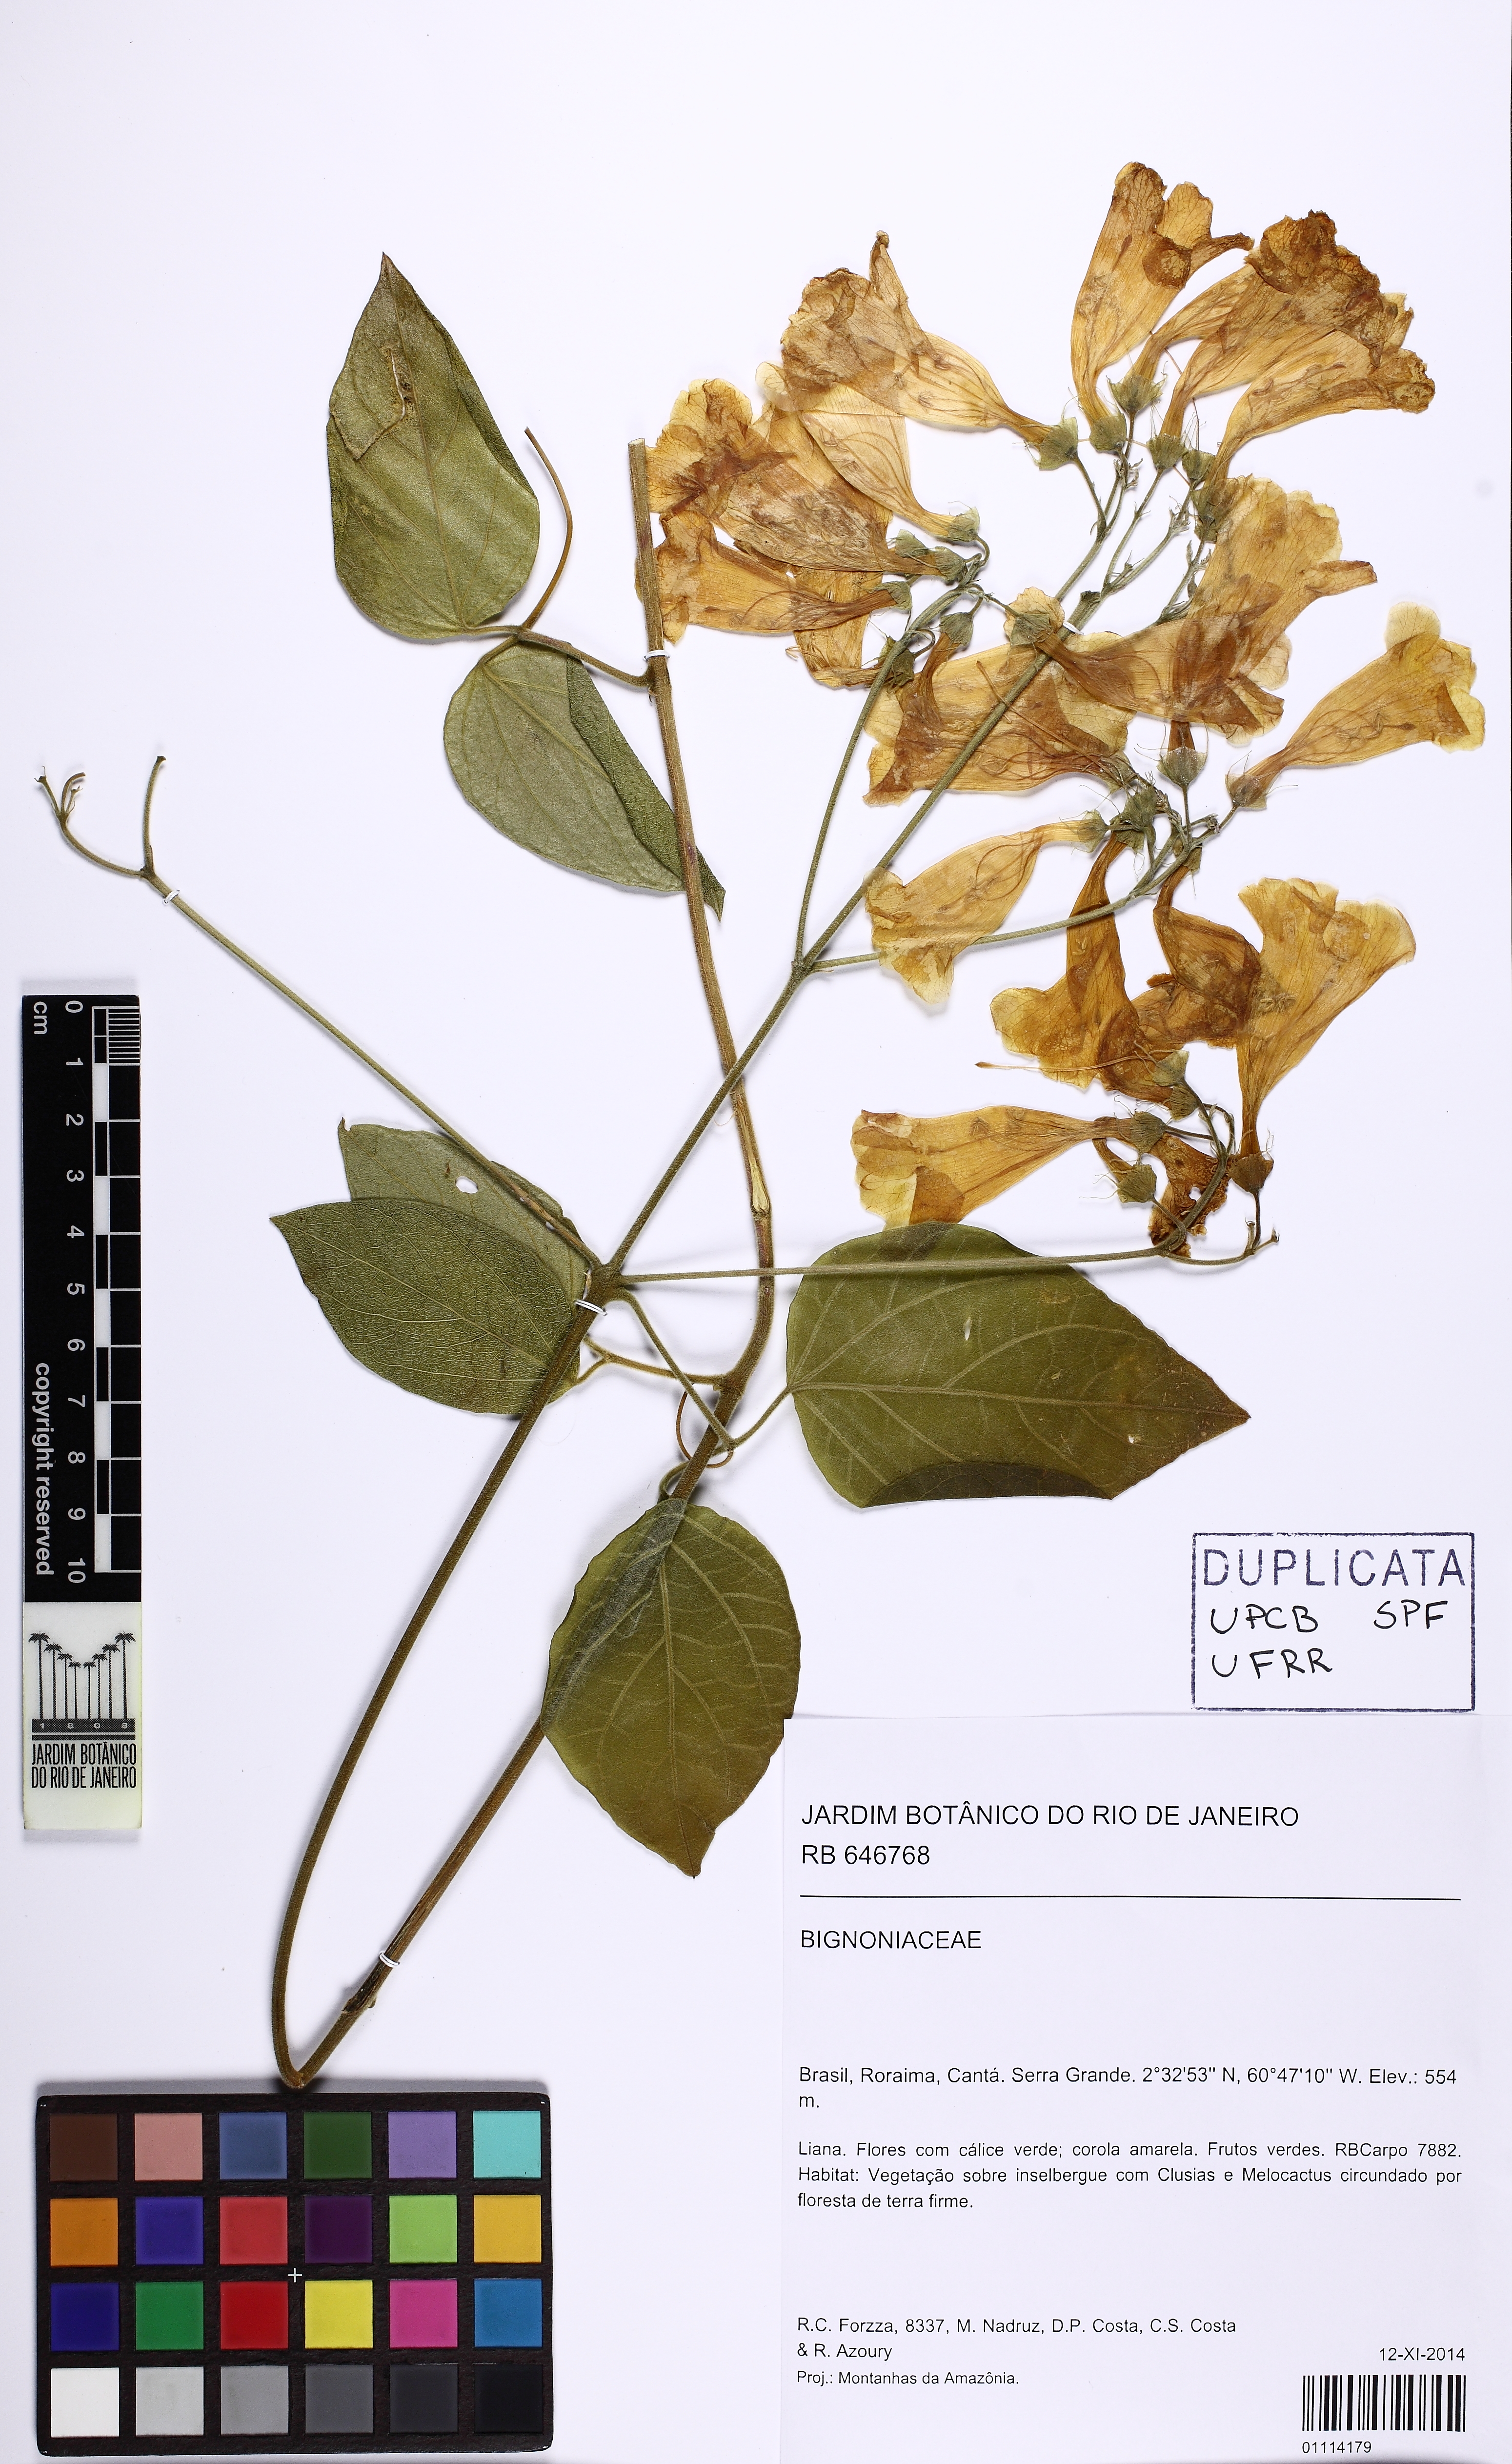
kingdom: Plantae
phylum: Tracheophyta
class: Magnoliopsida
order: Lamiales
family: Bignoniaceae
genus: Anemopaegma
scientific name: Anemopaegma
